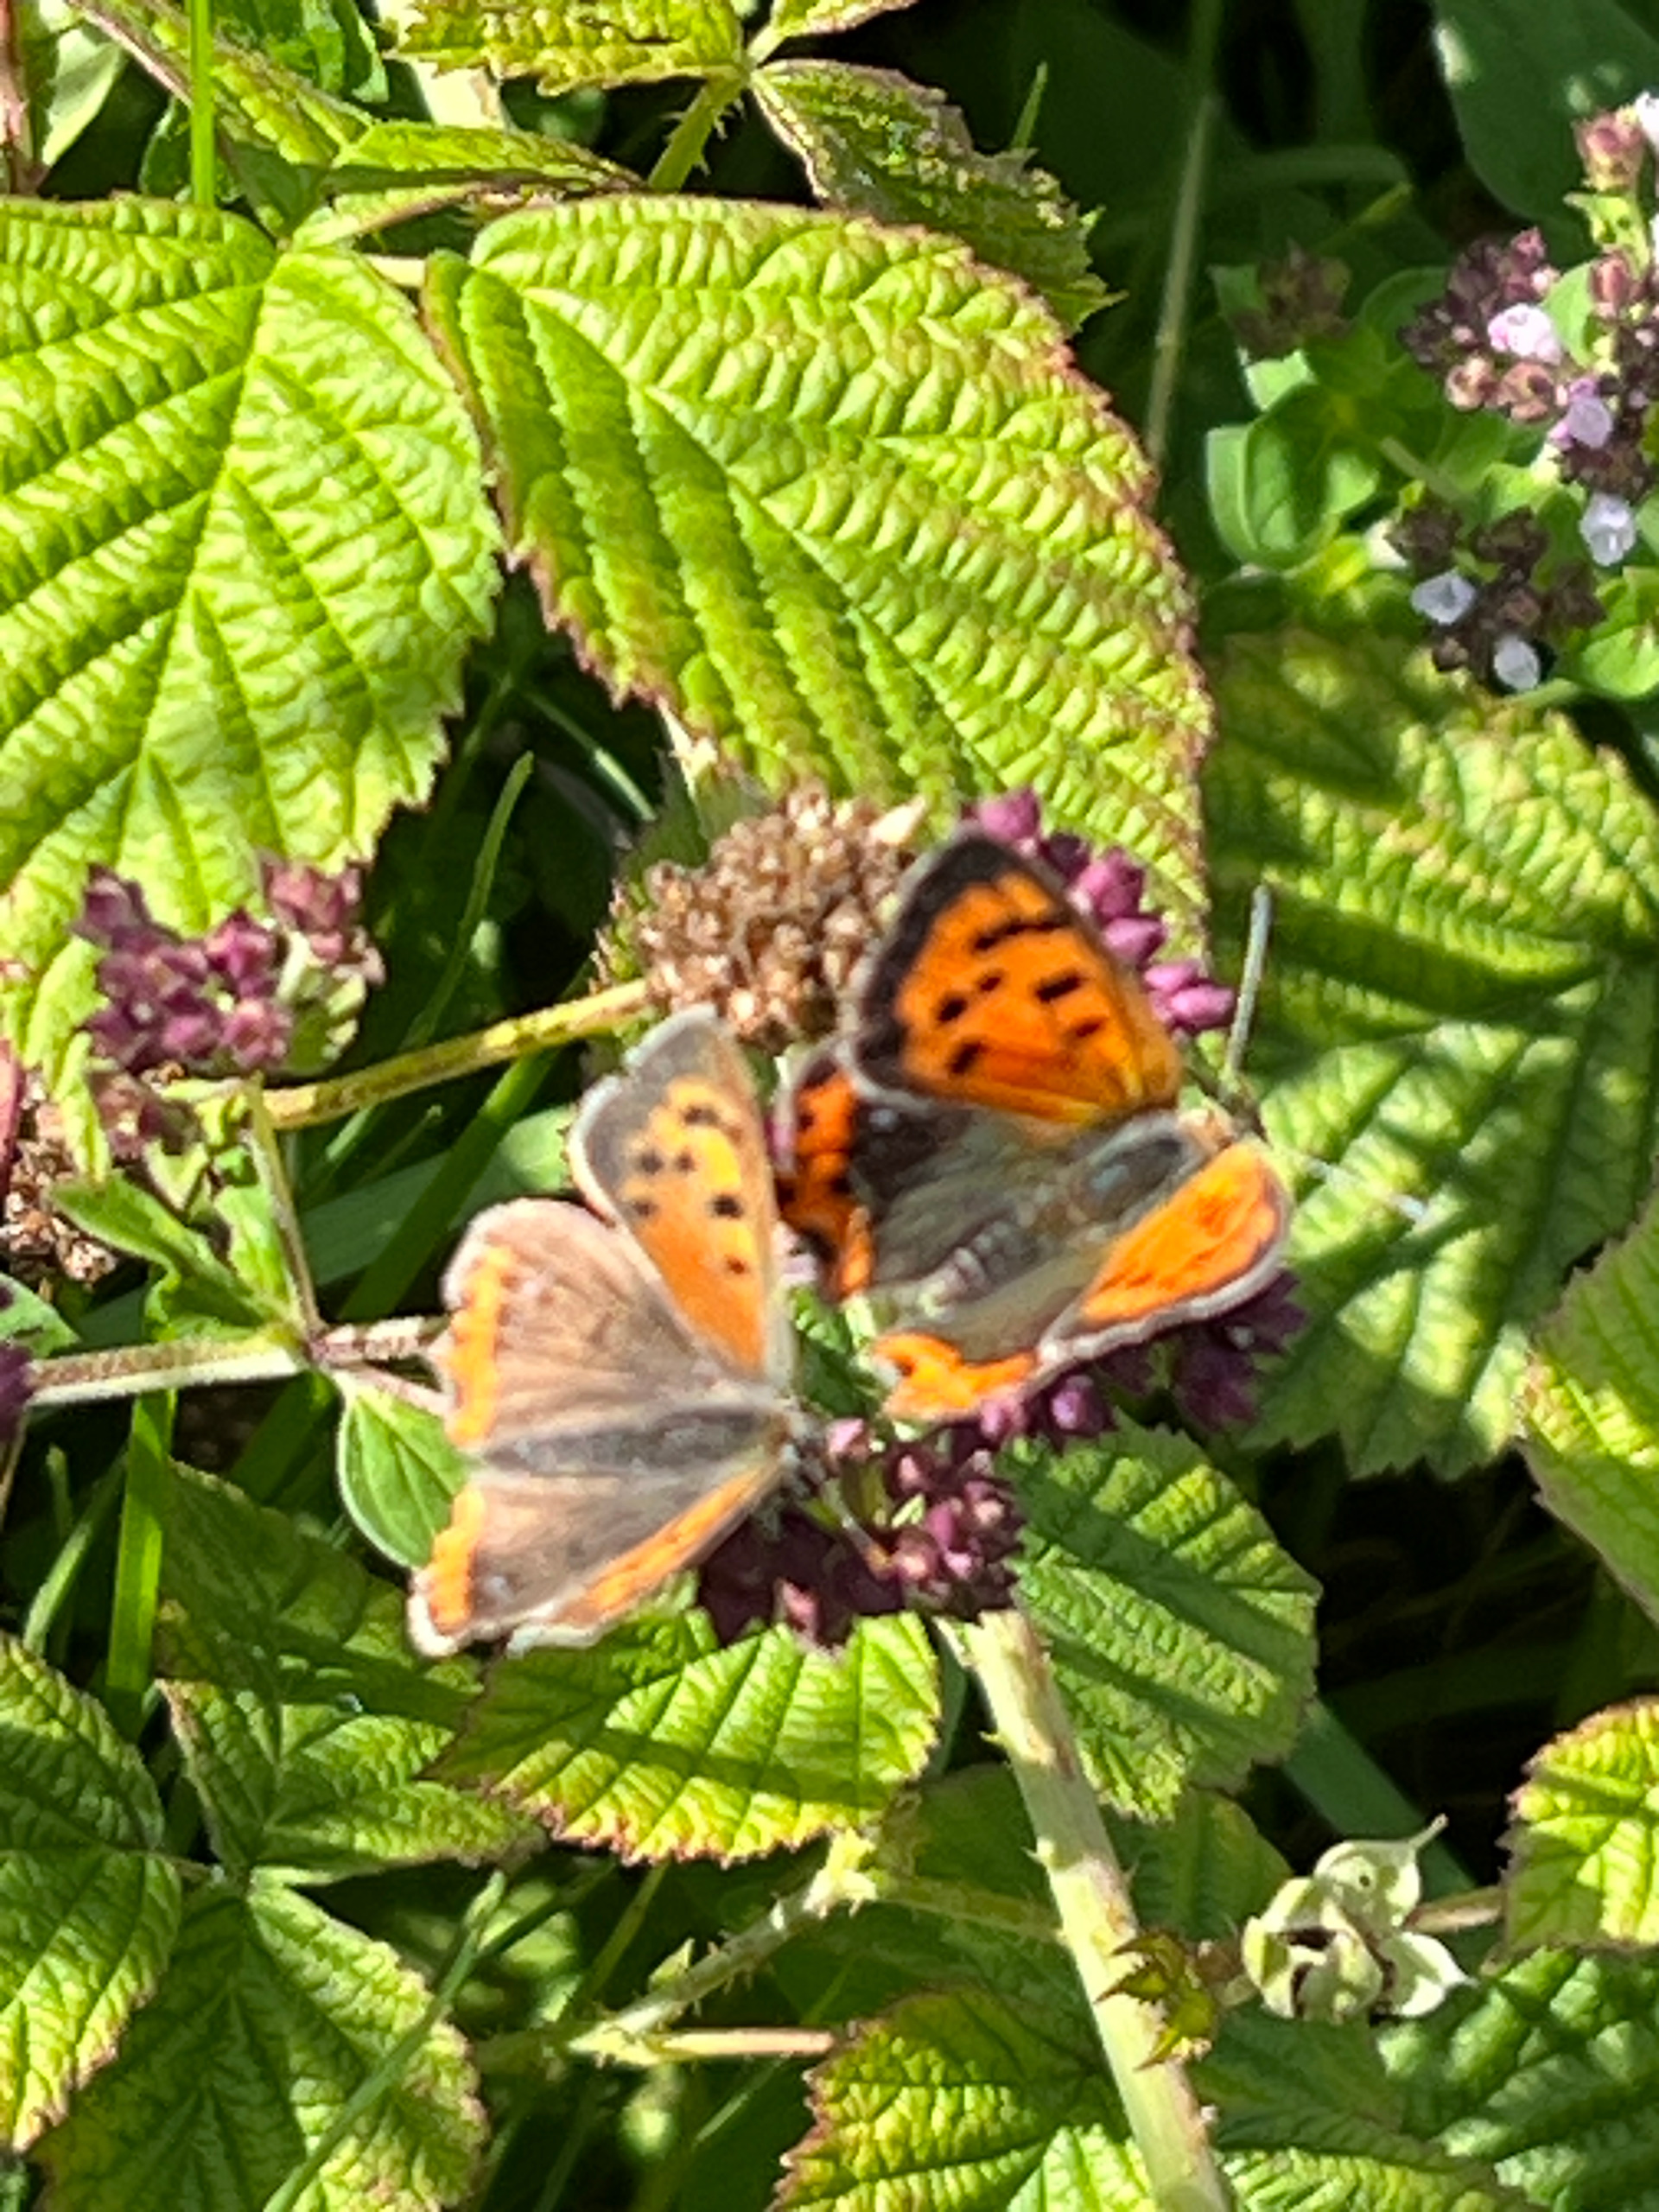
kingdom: Animalia
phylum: Arthropoda
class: Insecta
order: Lepidoptera
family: Lycaenidae
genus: Lycaena
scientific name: Lycaena phlaeas
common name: Lille ildfugl
